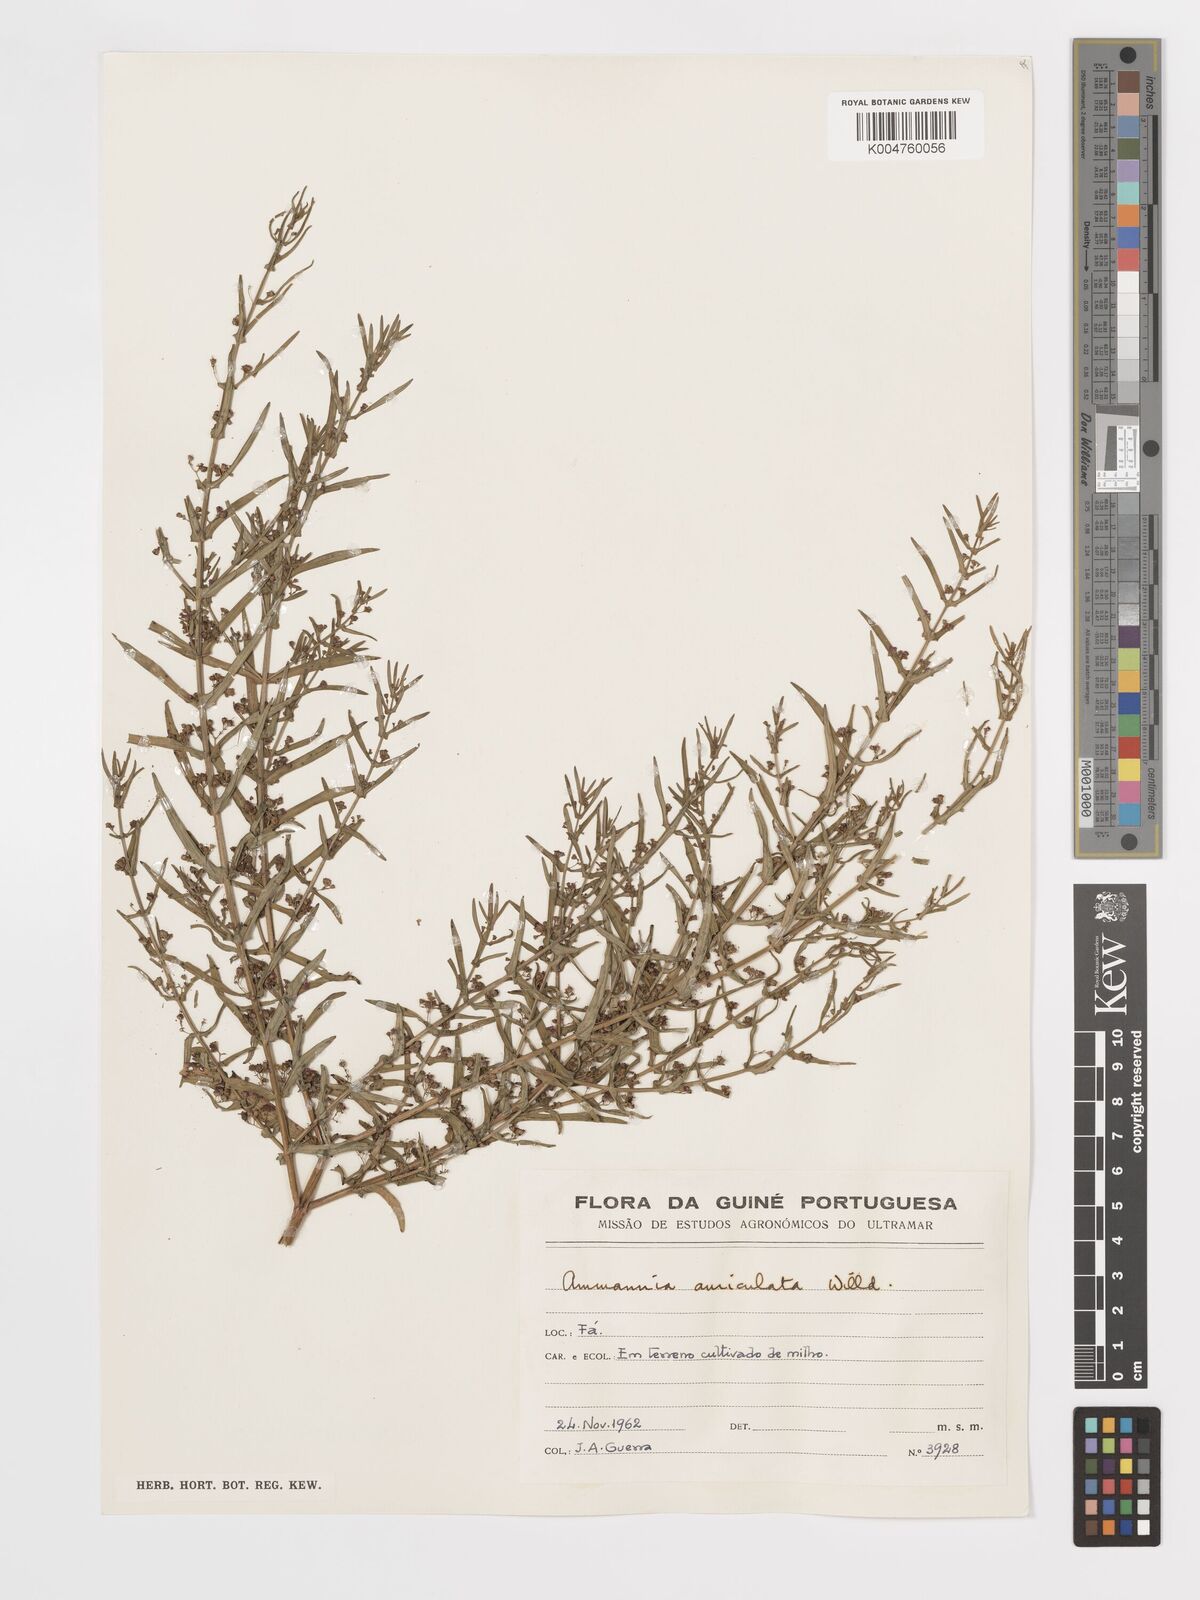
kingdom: Plantae
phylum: Tracheophyta
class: Magnoliopsida
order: Myrtales
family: Lythraceae
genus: Ammannia
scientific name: Ammannia auriculata
